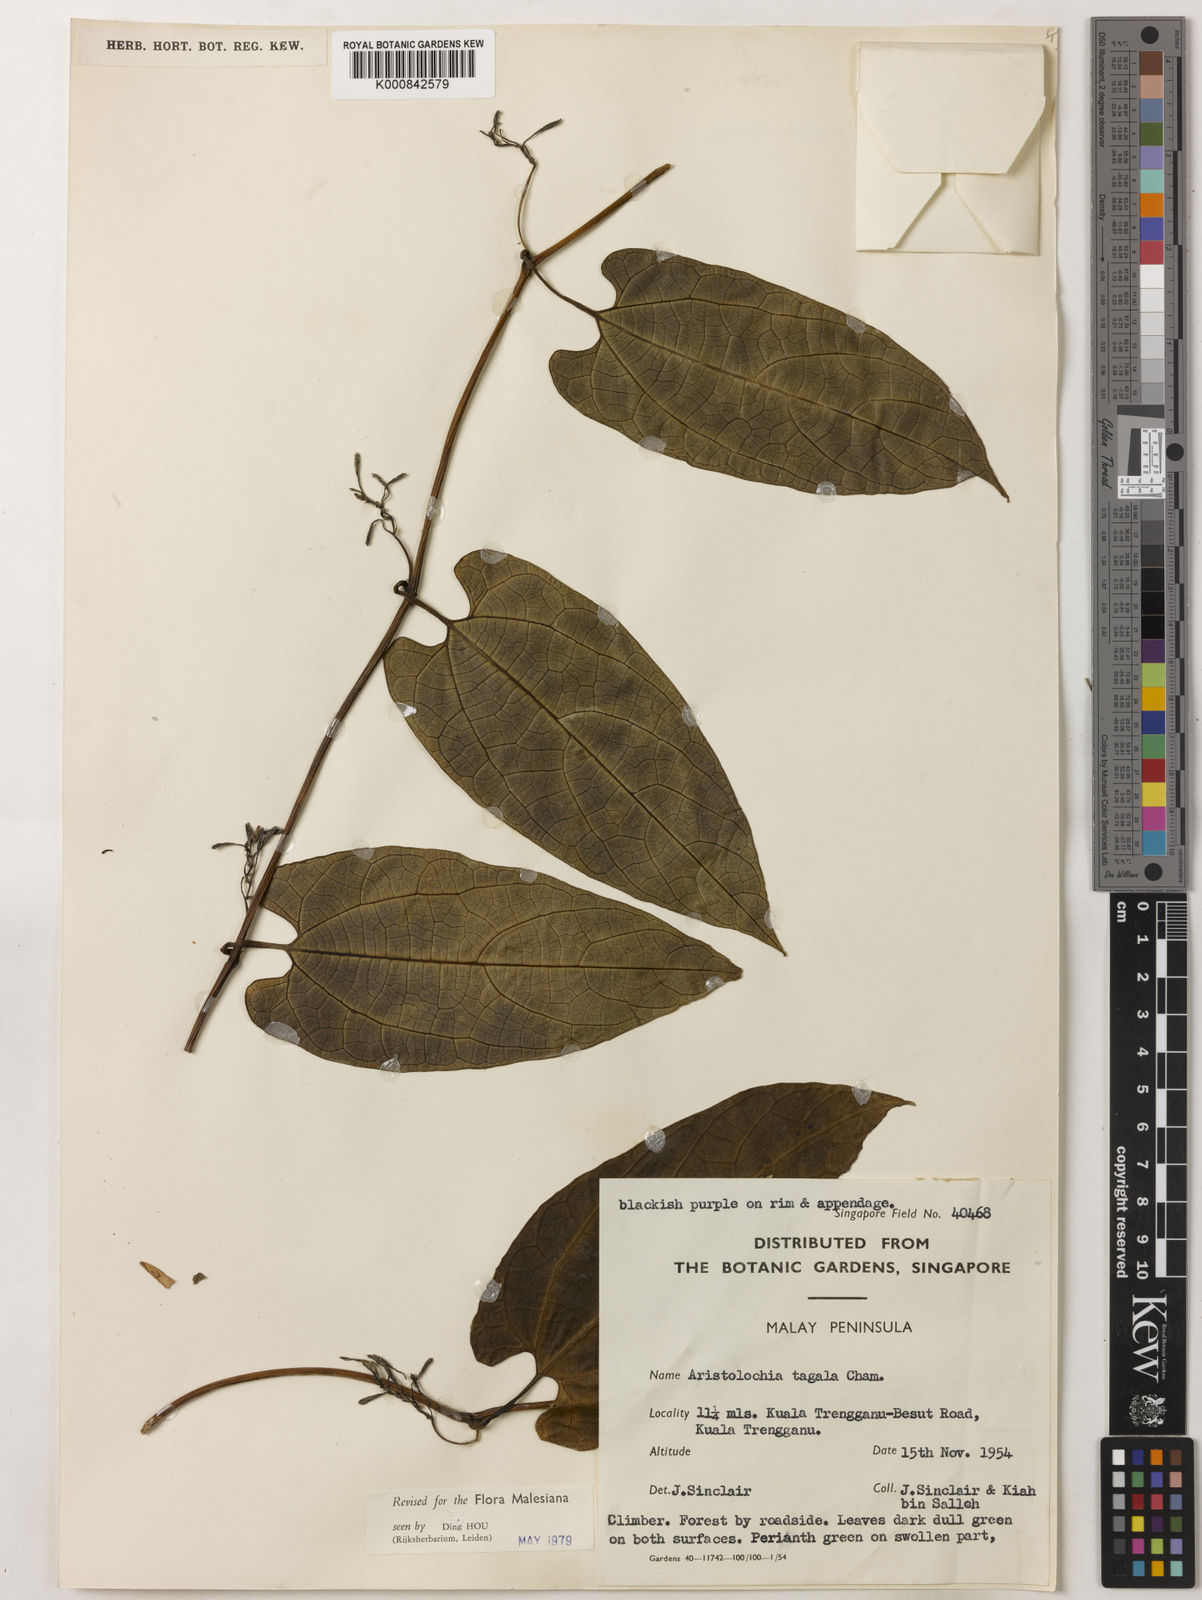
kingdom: Plantae
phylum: Tracheophyta
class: Magnoliopsida
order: Piperales
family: Aristolochiaceae
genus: Aristolochia
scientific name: Aristolochia acuminata
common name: Indian birthwort
